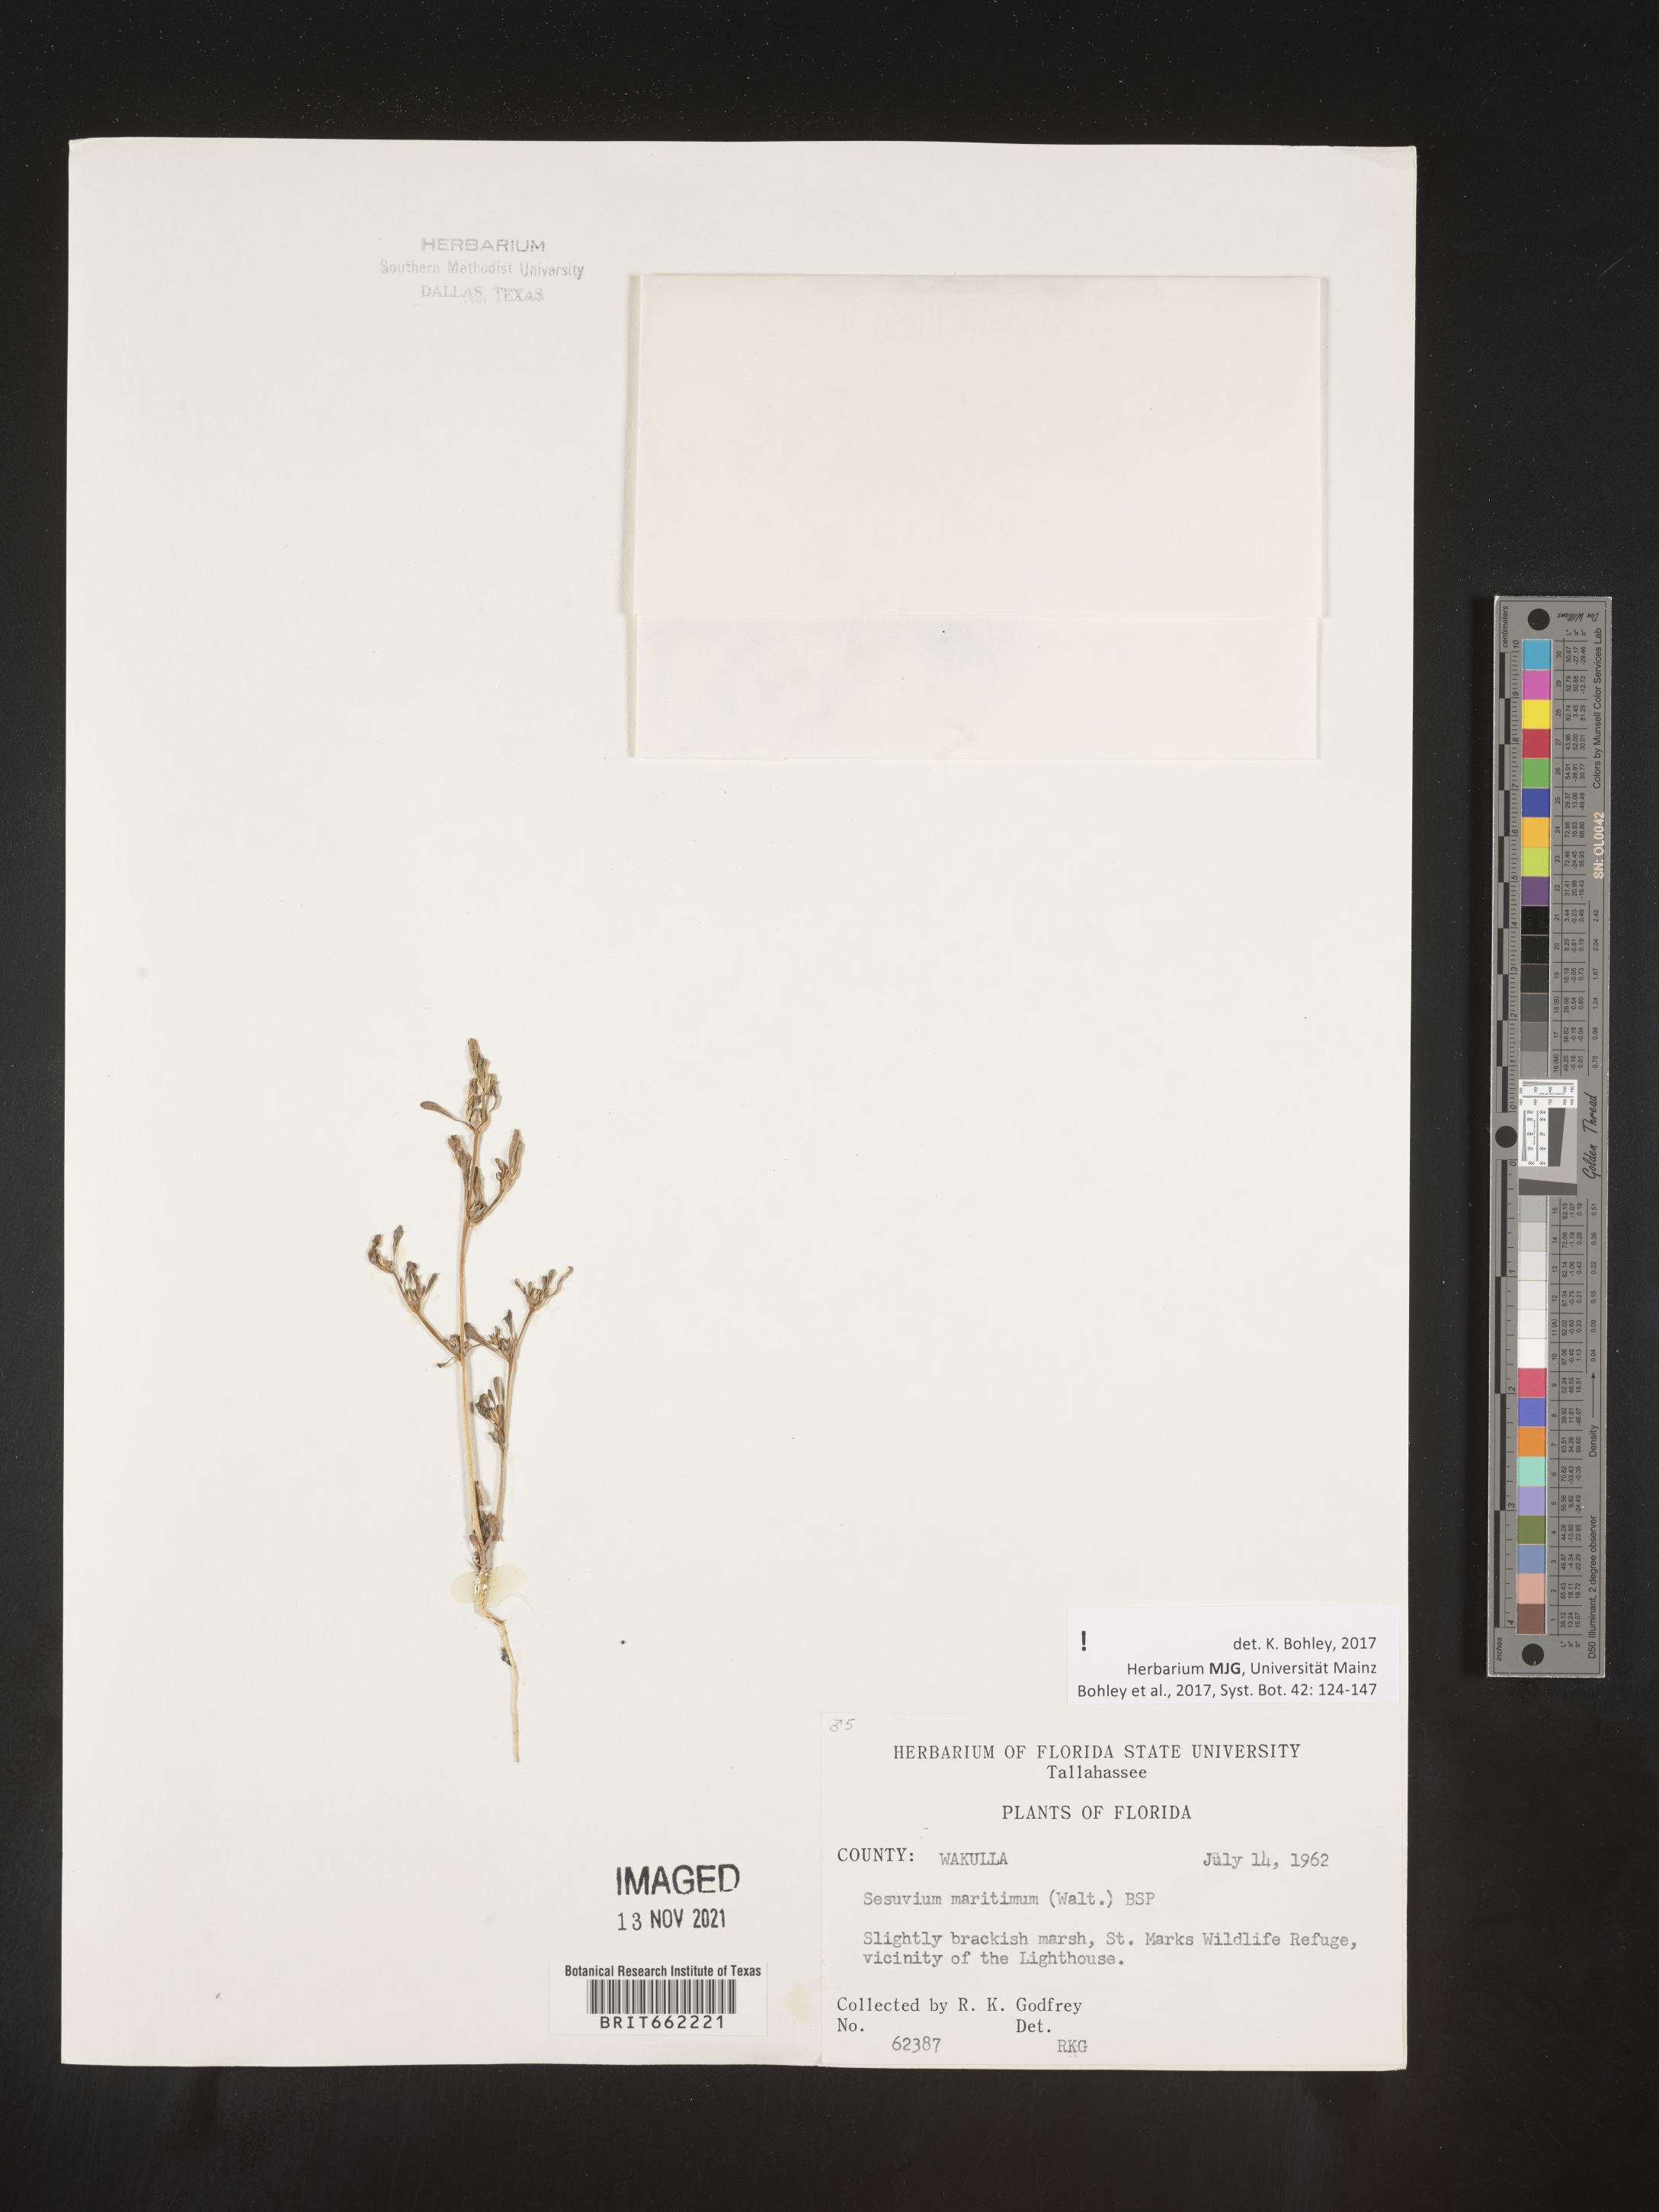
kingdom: Plantae
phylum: Tracheophyta
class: Magnoliopsida
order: Caryophyllales
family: Aizoaceae
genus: Sesuvium
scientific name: Sesuvium
